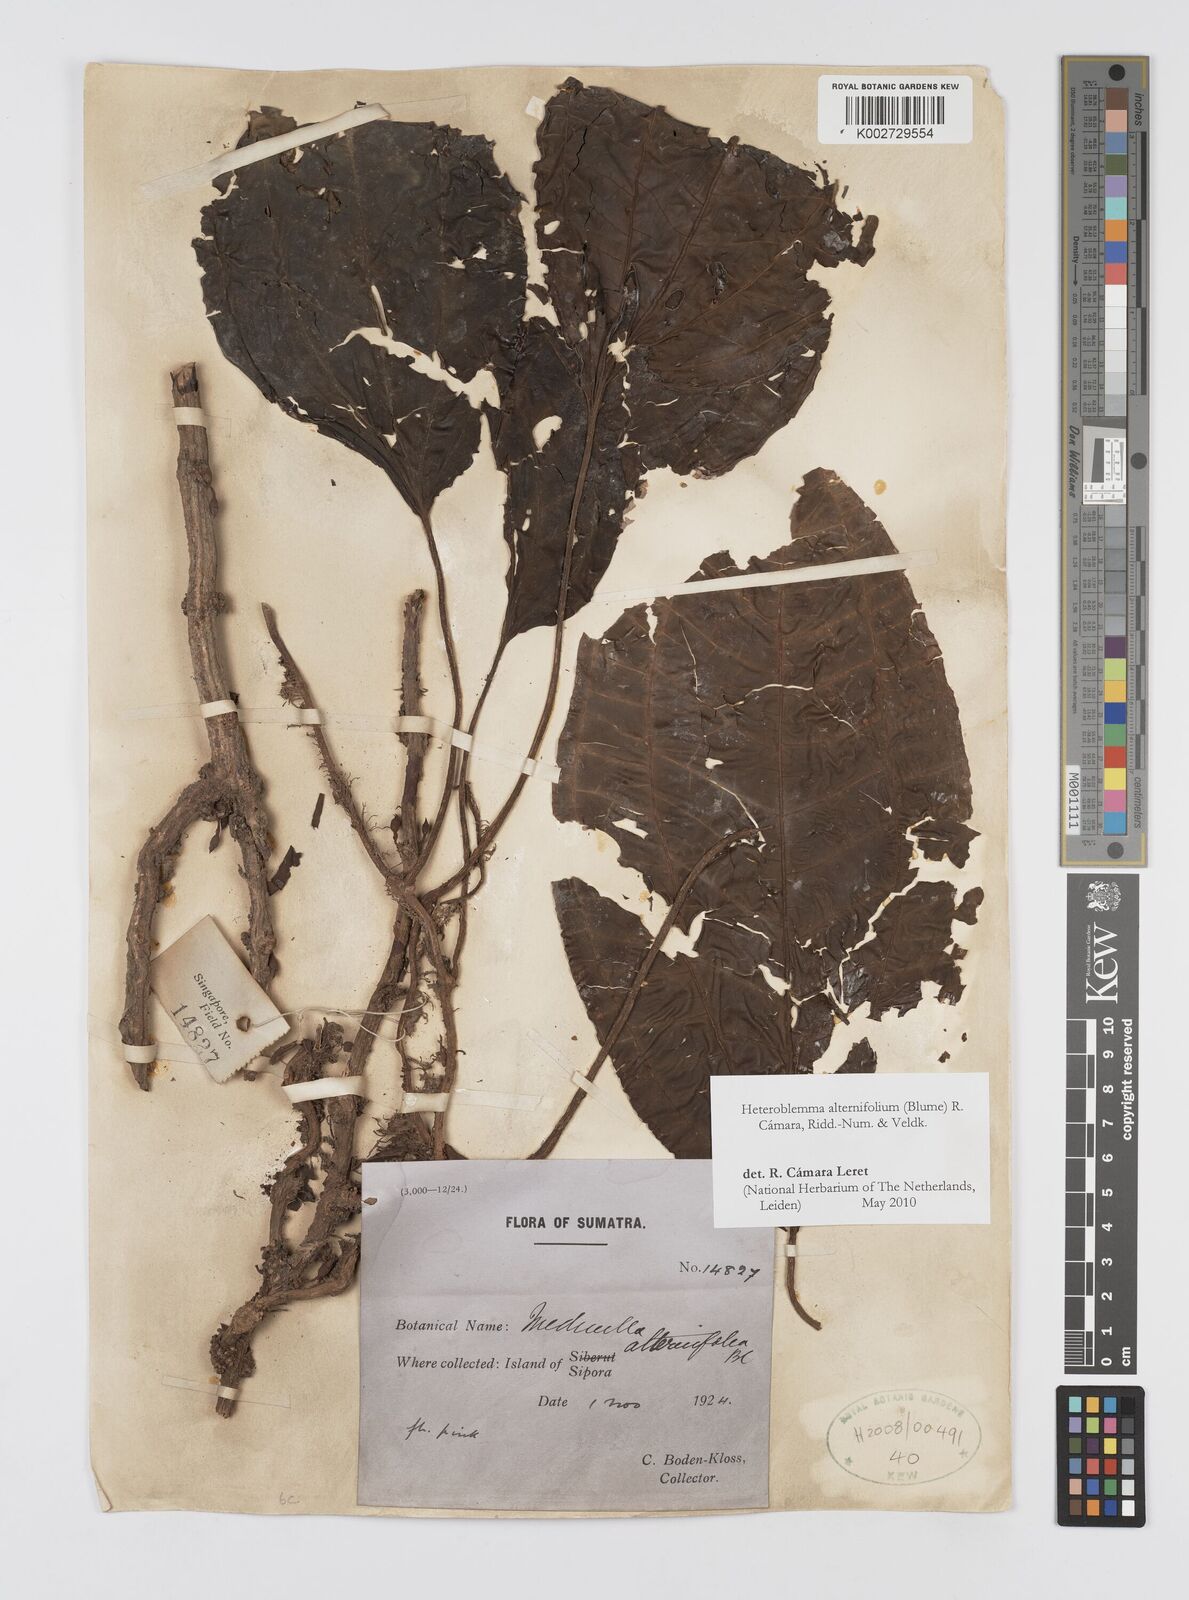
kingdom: Plantae
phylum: Tracheophyta
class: Magnoliopsida
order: Myrtales
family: Melastomataceae
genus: Heteroblemma
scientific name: Heteroblemma alternifolium
